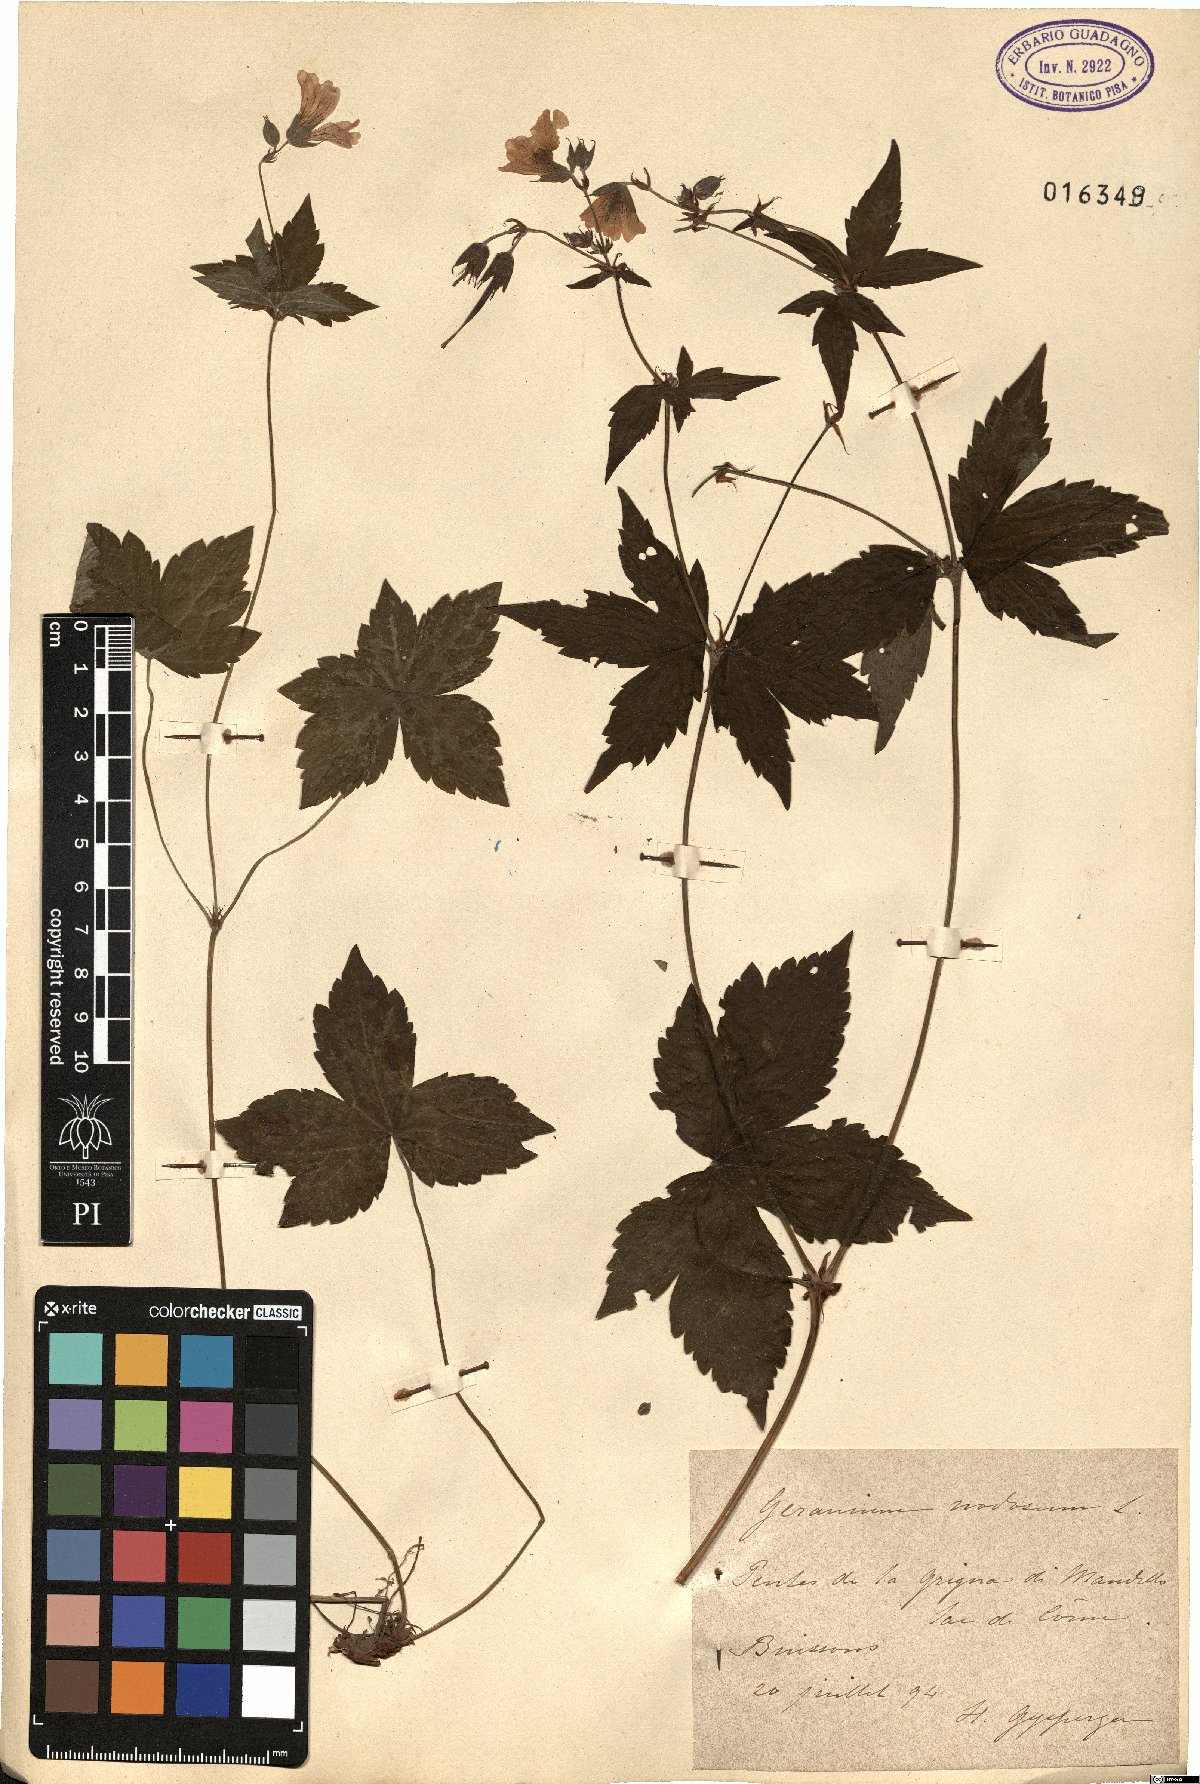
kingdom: Plantae
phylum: Tracheophyta
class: Magnoliopsida
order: Geraniales
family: Geraniaceae
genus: Geranium
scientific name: Geranium nodosum
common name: Knotted crane's-bill
